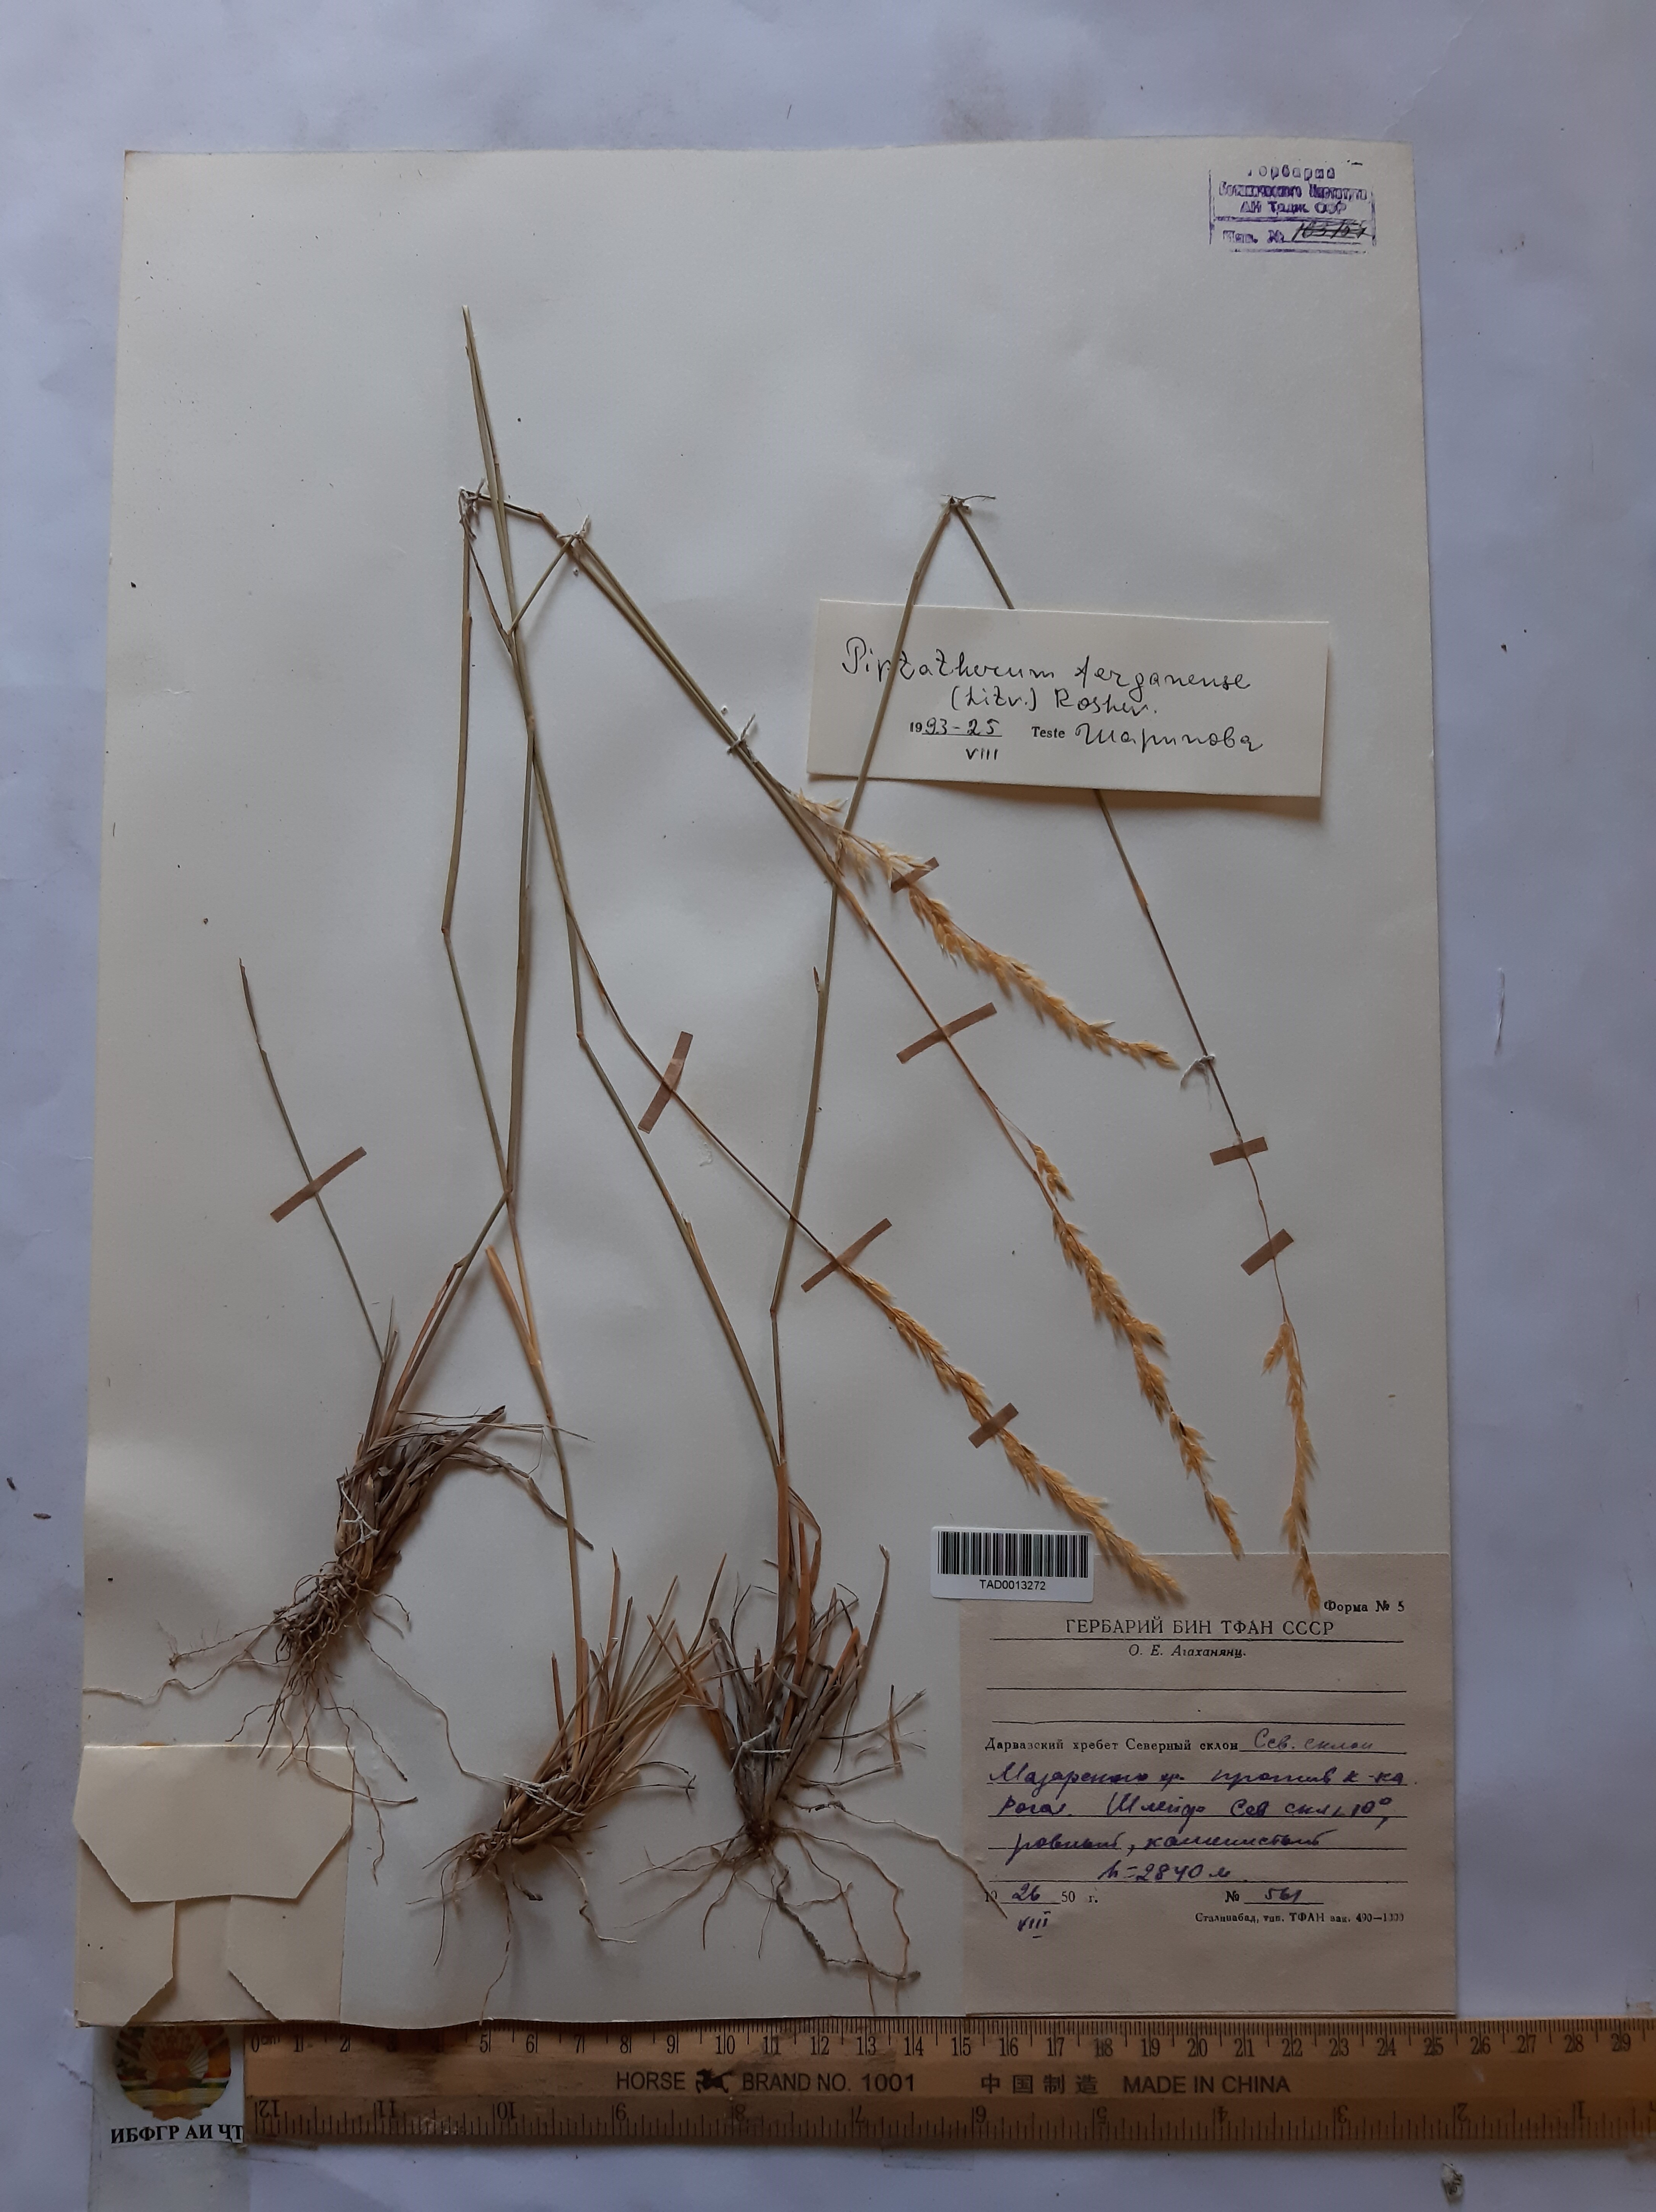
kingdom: Plantae
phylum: Tracheophyta
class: Liliopsida
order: Poales
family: Poaceae
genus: Piptatherum
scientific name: Piptatherum ferganense
